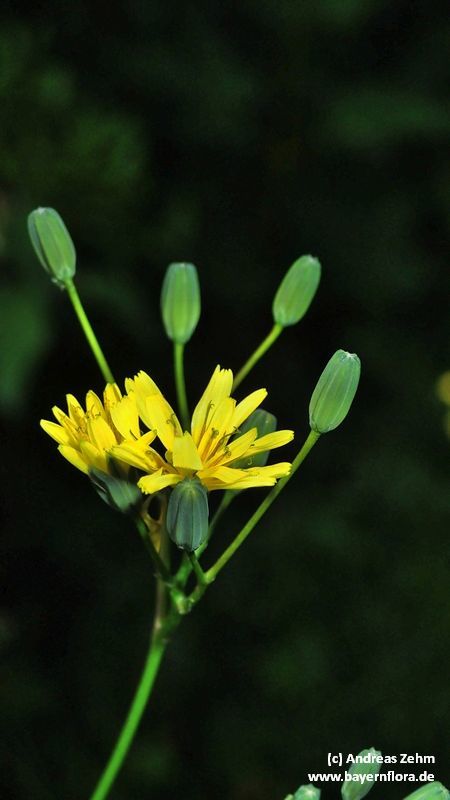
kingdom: Plantae
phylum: Tracheophyta
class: Magnoliopsida
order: Asterales
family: Asteraceae
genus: Lapsana
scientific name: Lapsana communis
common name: Nipplewort
